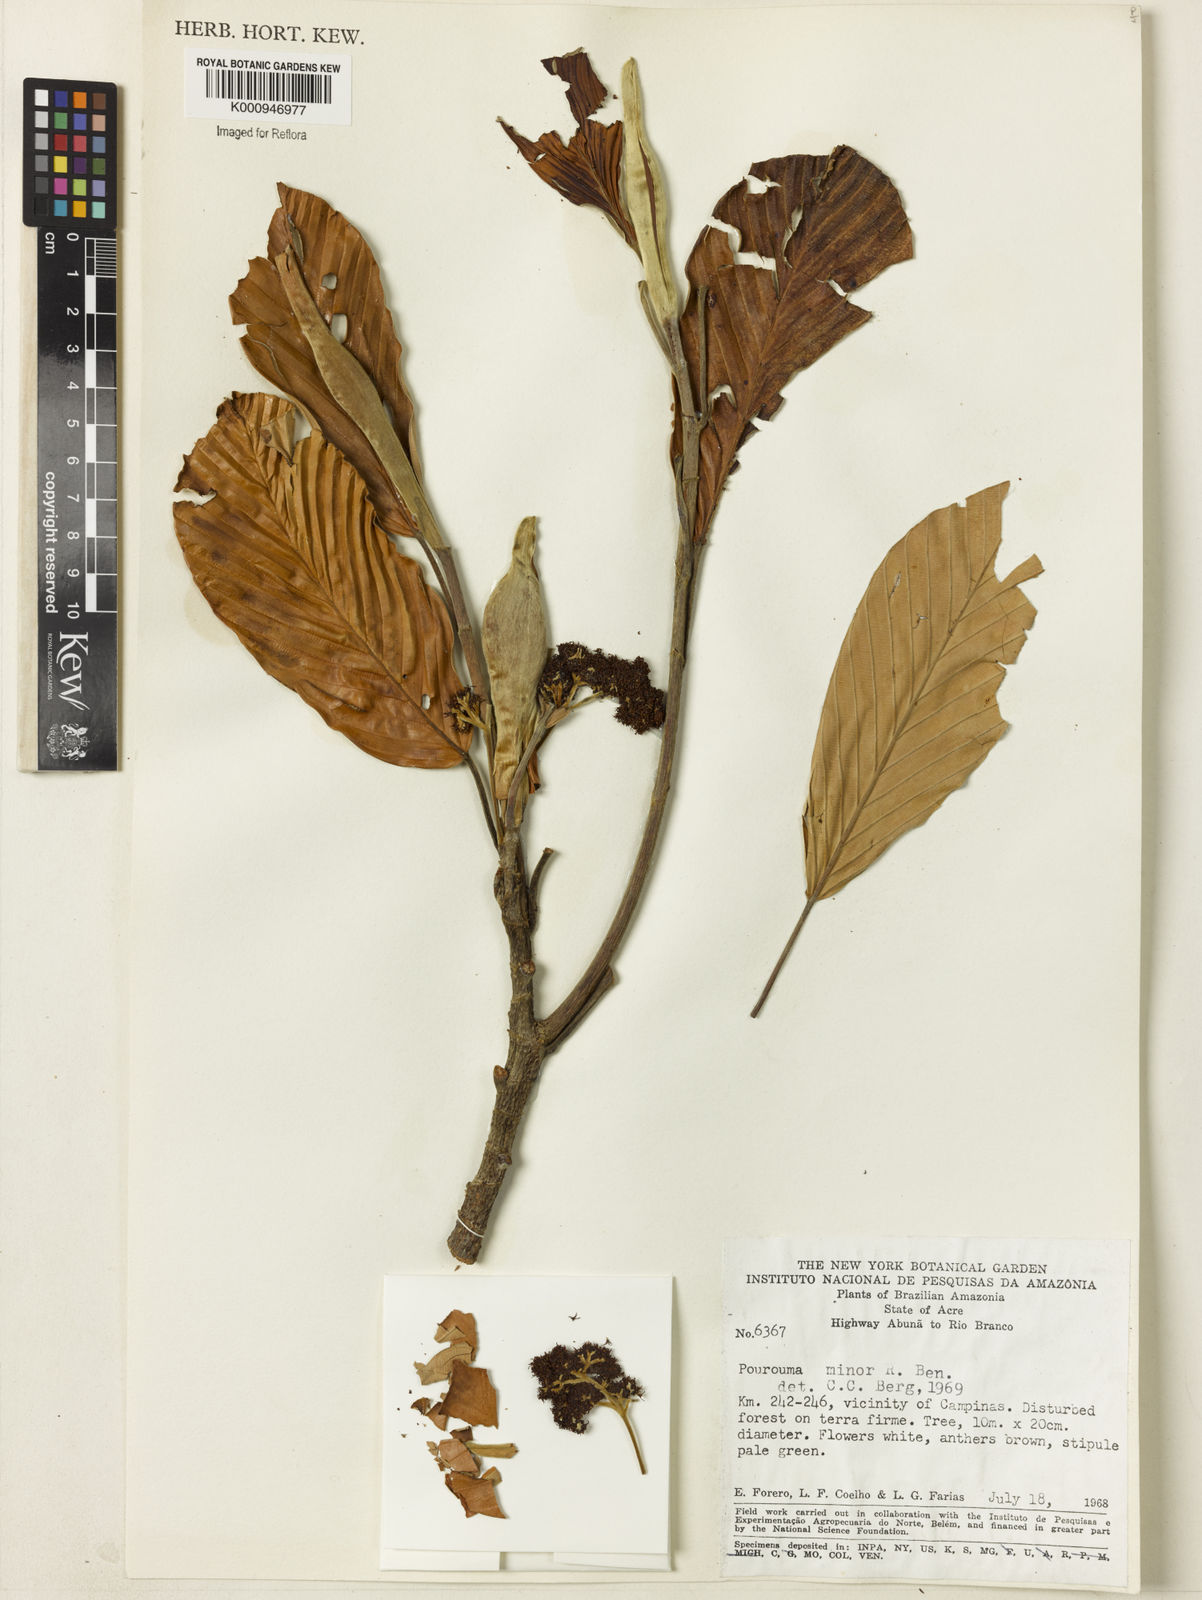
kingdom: Plantae
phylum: Tracheophyta
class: Magnoliopsida
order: Rosales
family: Urticaceae
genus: Pourouma
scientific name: Pourouma minor
